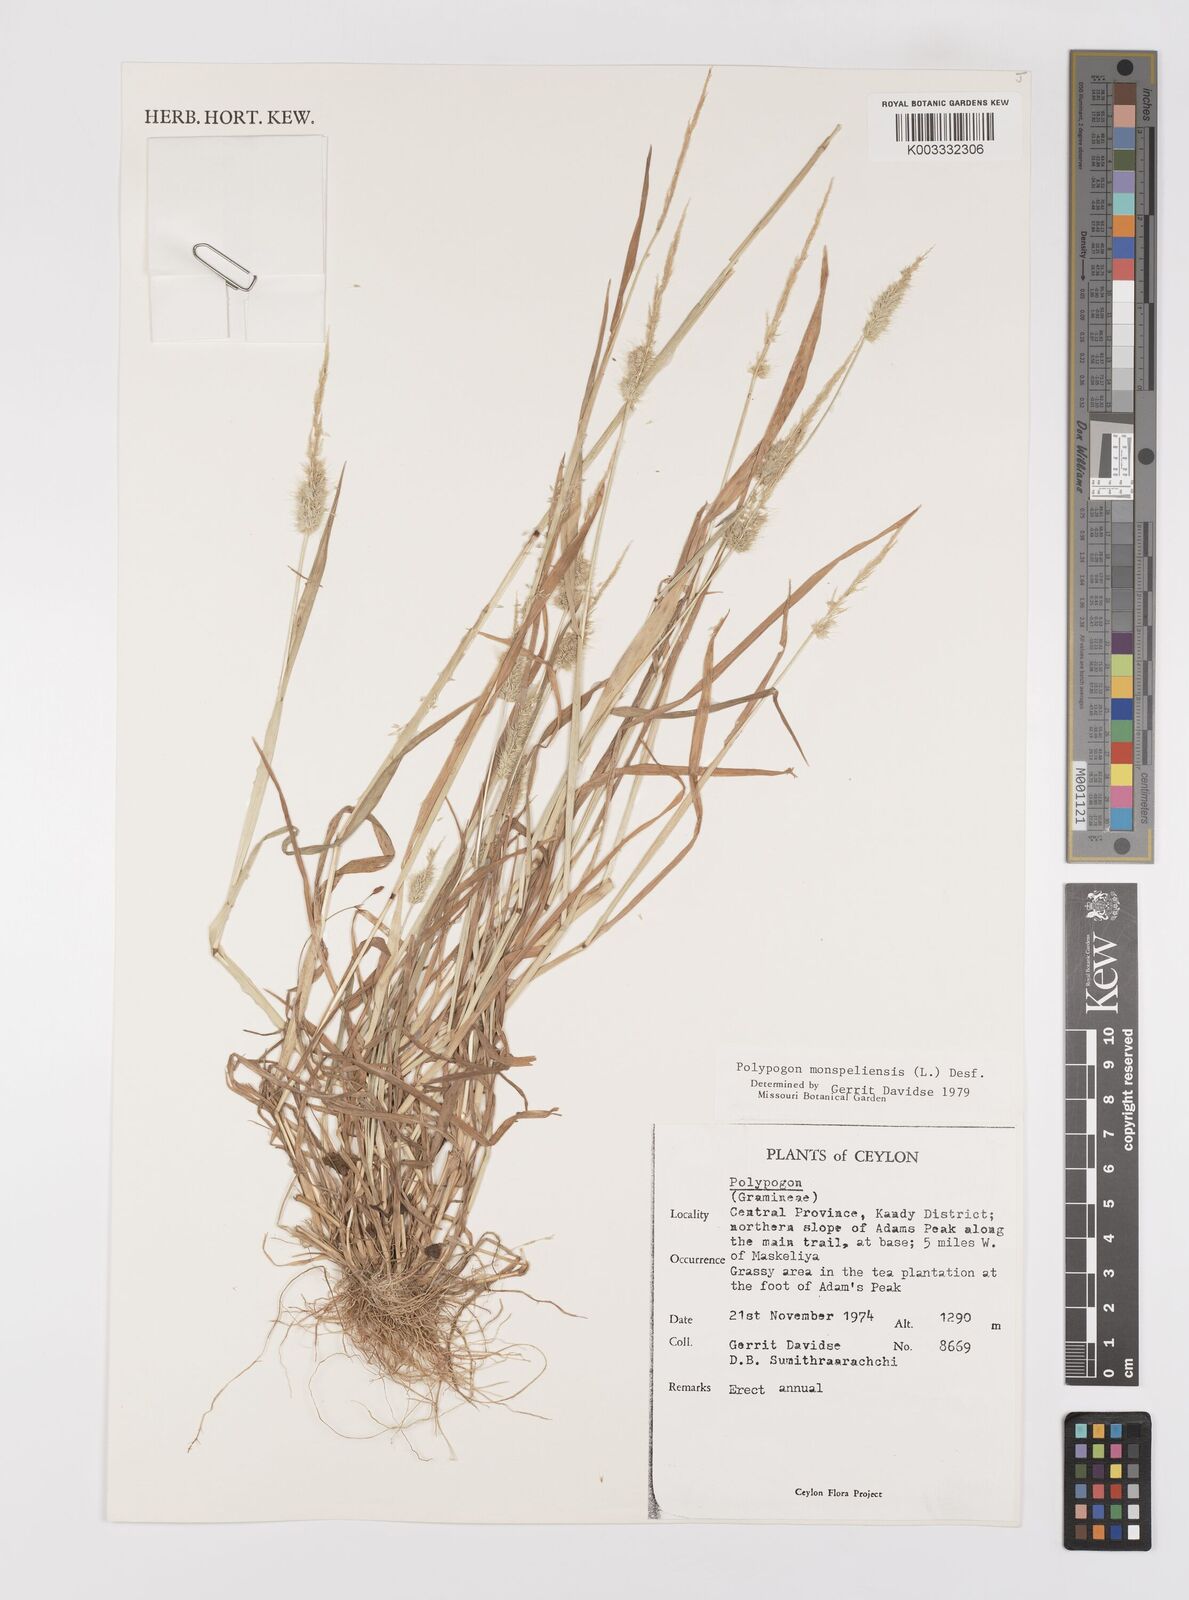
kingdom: Plantae
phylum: Tracheophyta
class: Liliopsida
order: Poales
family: Poaceae
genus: Polypogon
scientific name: Polypogon monspeliensis
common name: Annual rabbitsfoot grass
